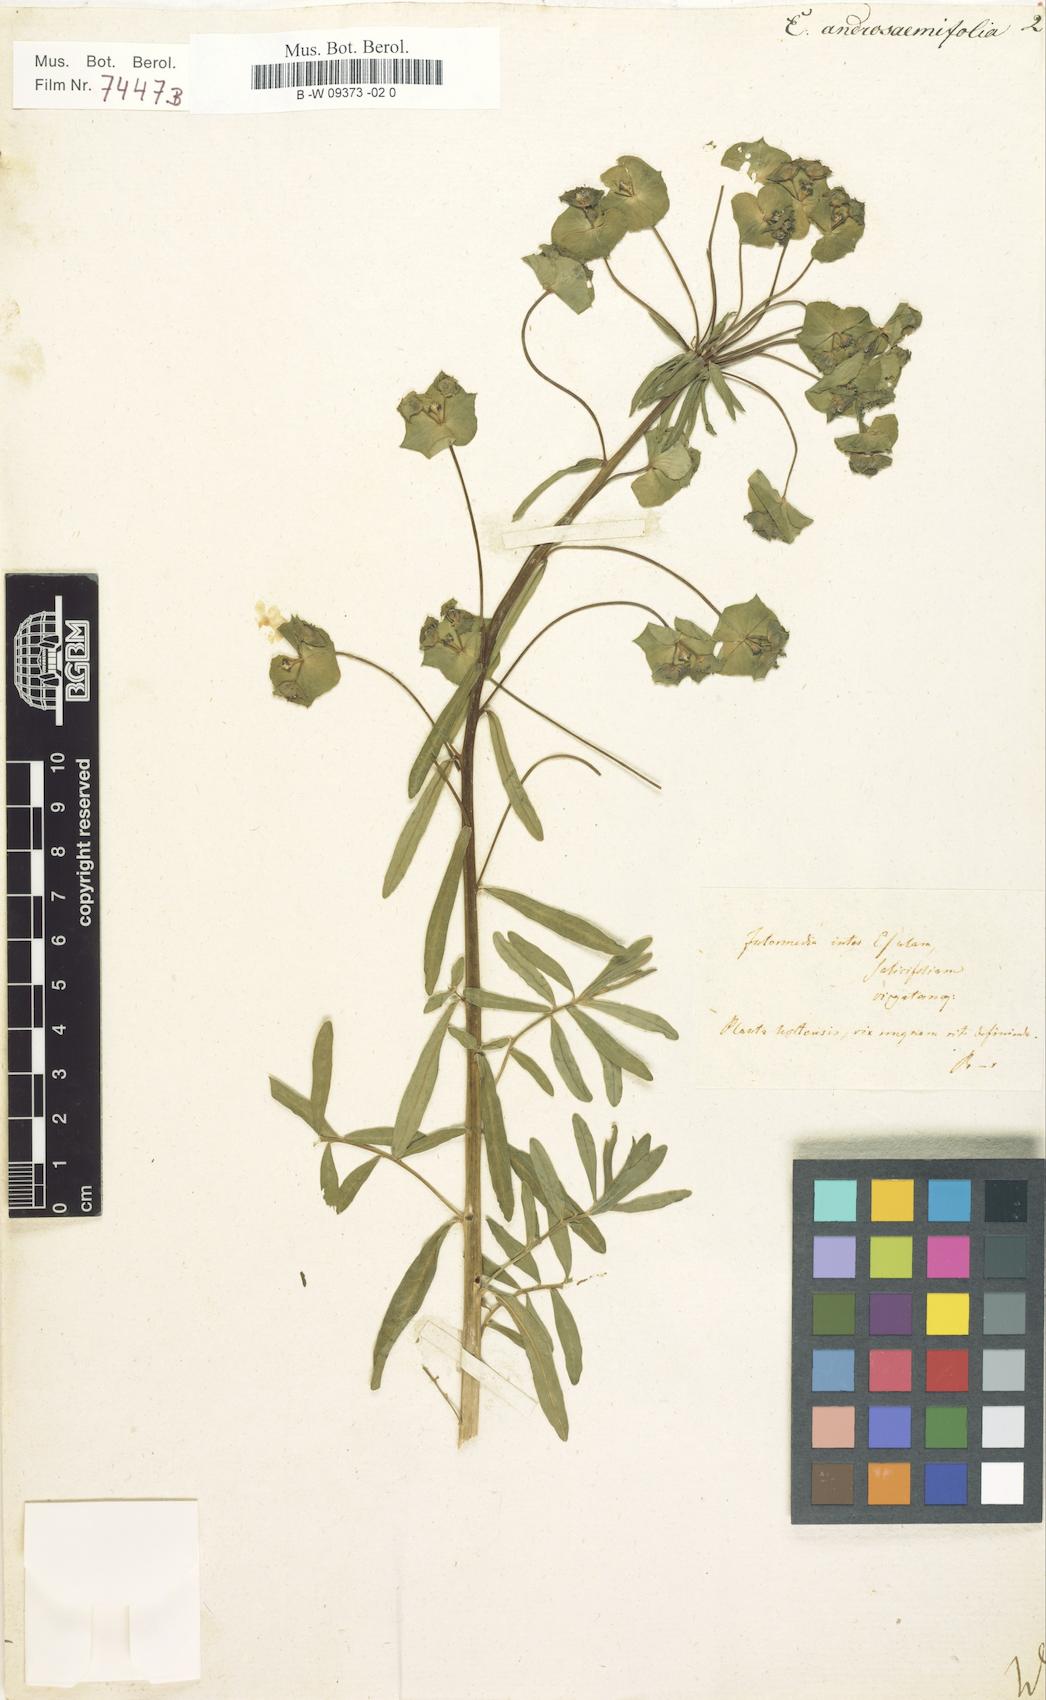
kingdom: Plantae
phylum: Tracheophyta
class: Magnoliopsida
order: Malpighiales
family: Euphorbiaceae
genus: Euphorbia
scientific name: Euphorbia esula
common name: Leafy spurge
